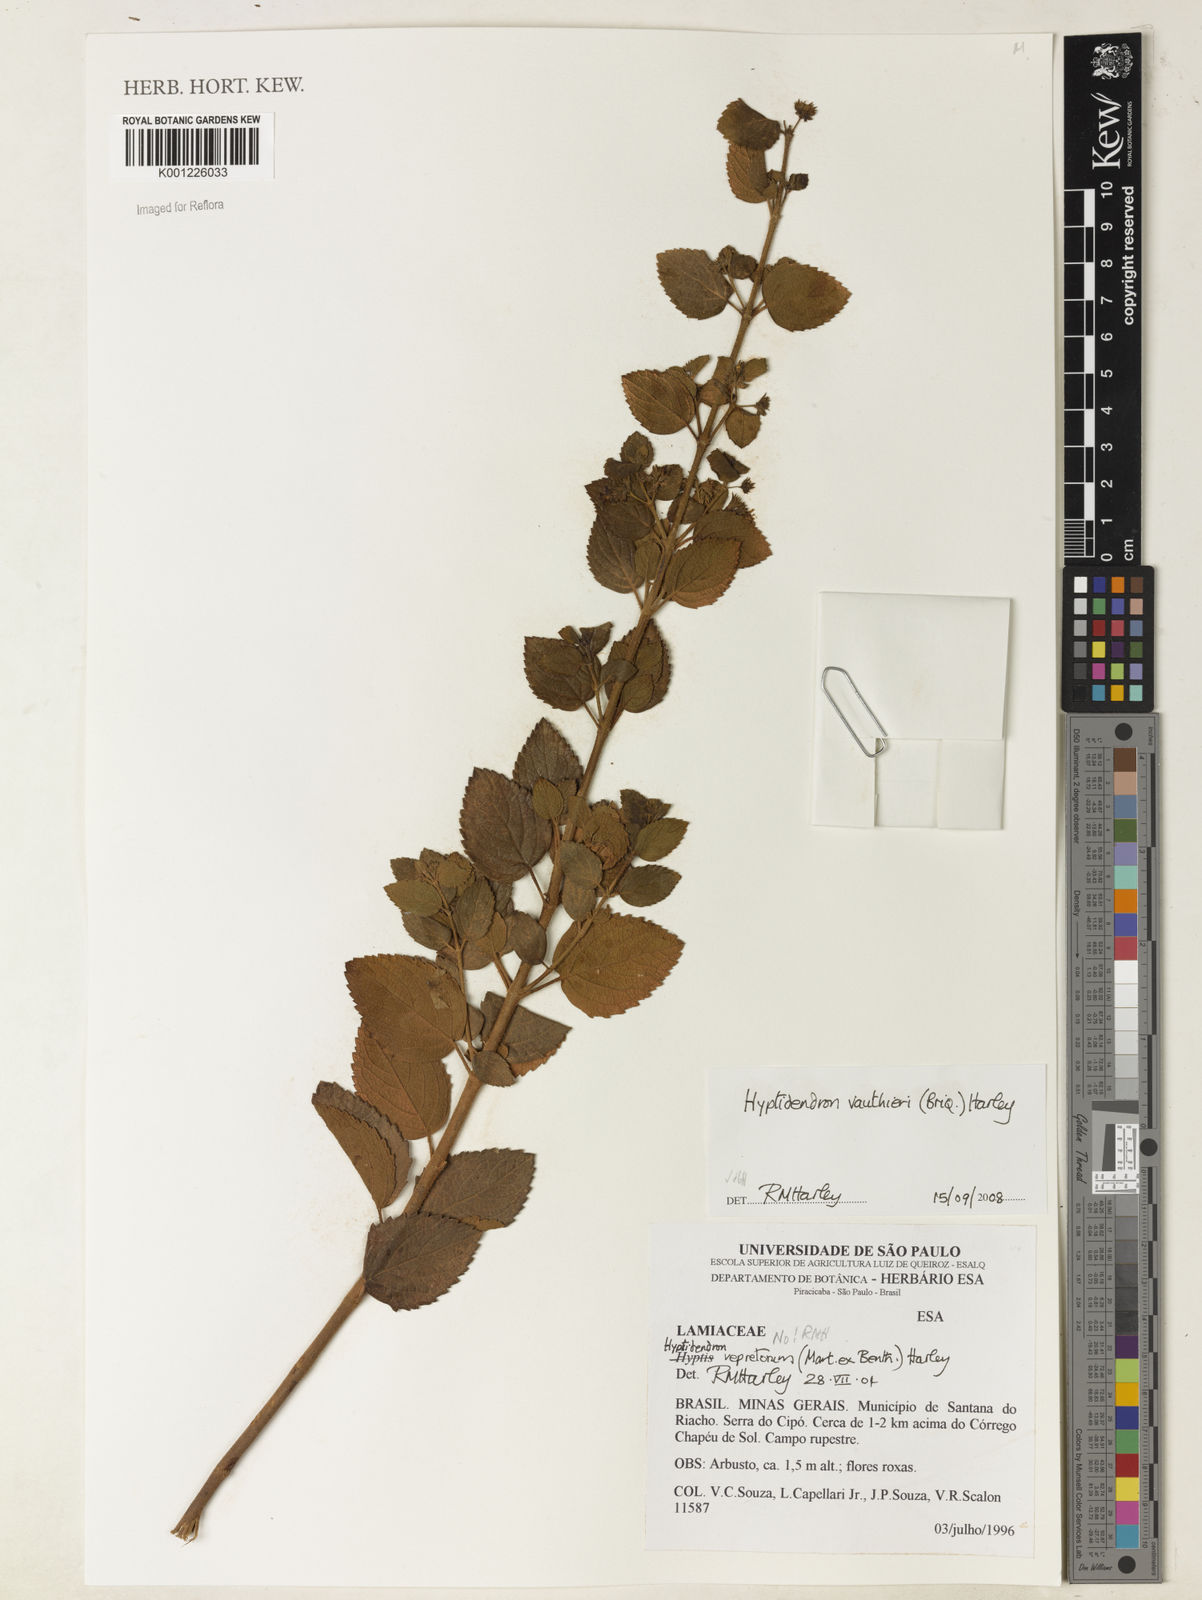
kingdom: Plantae
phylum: Tracheophyta
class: Magnoliopsida
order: Lamiales
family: Lamiaceae
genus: Hyptidendron
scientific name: Hyptidendron vauthieri
